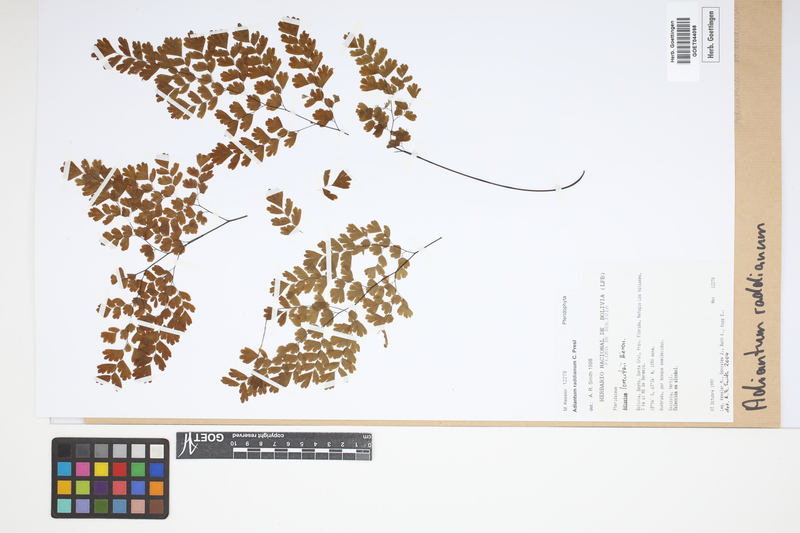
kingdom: Plantae
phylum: Tracheophyta
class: Polypodiopsida
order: Polypodiales
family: Pteridaceae
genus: Adiantum
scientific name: Adiantum raddianum
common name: Delta maidenhair fern
